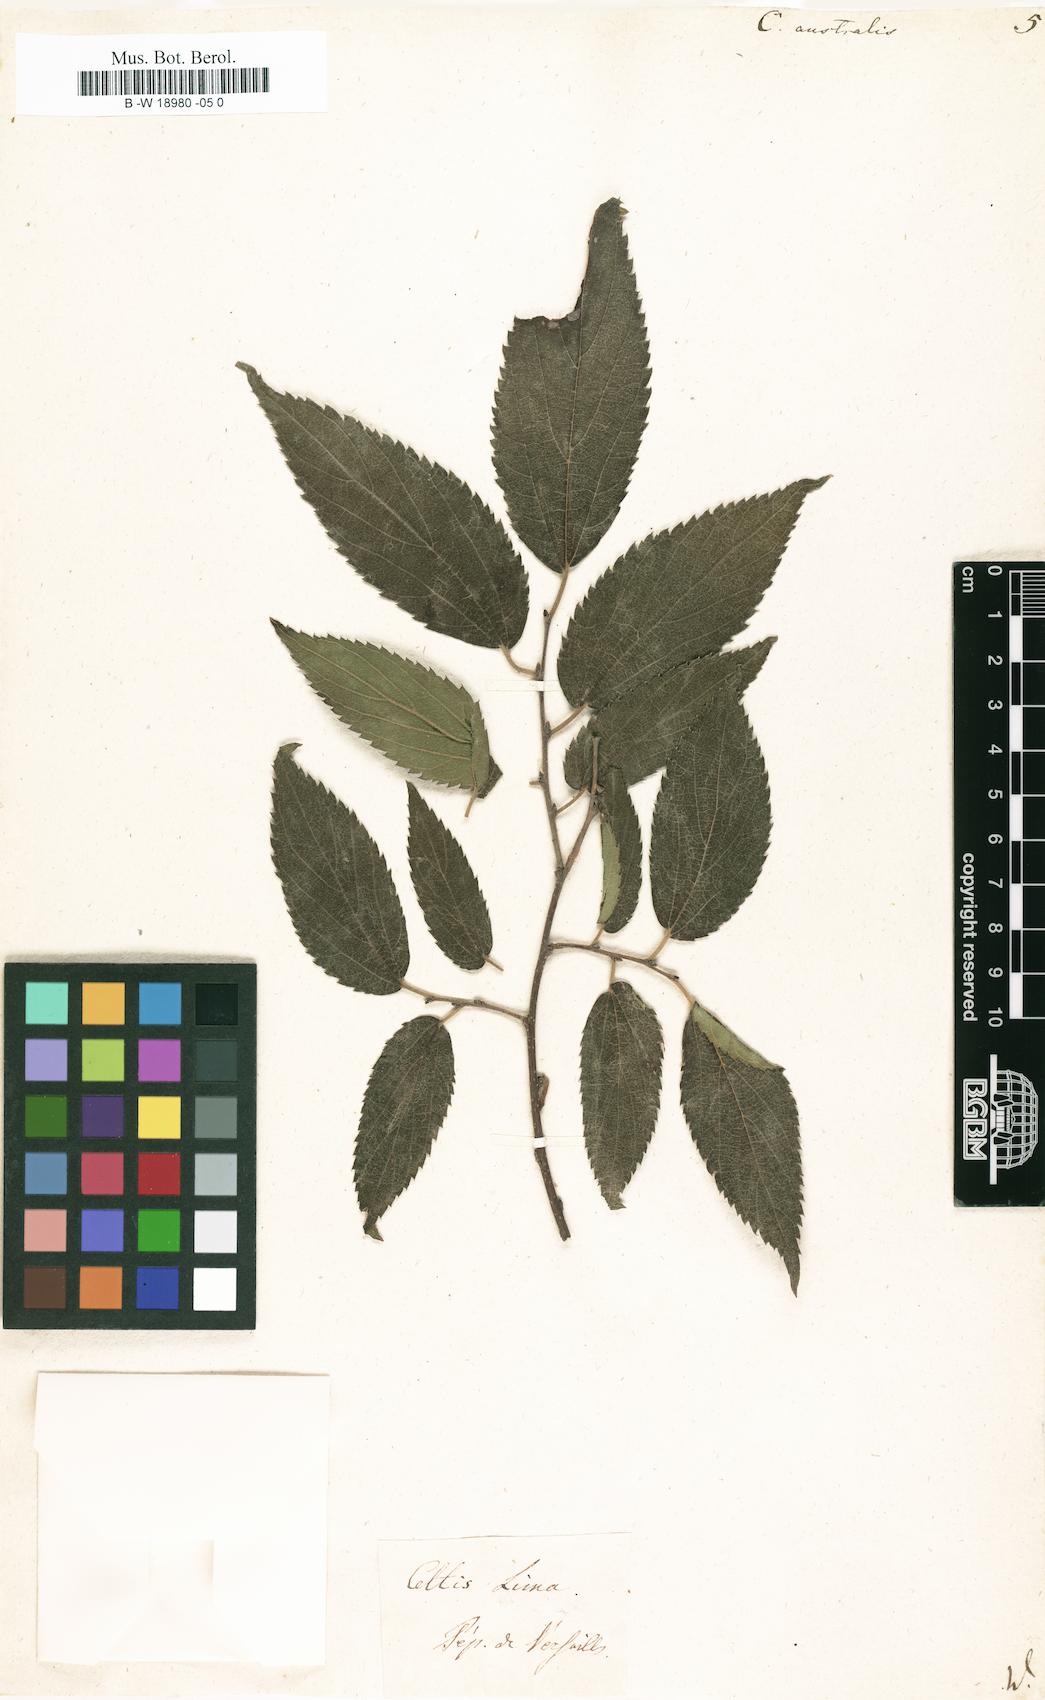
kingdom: Plantae
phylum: Tracheophyta
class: Magnoliopsida
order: Rosales
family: Cannabaceae
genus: Celtis
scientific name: Celtis australis
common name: European hackberry
